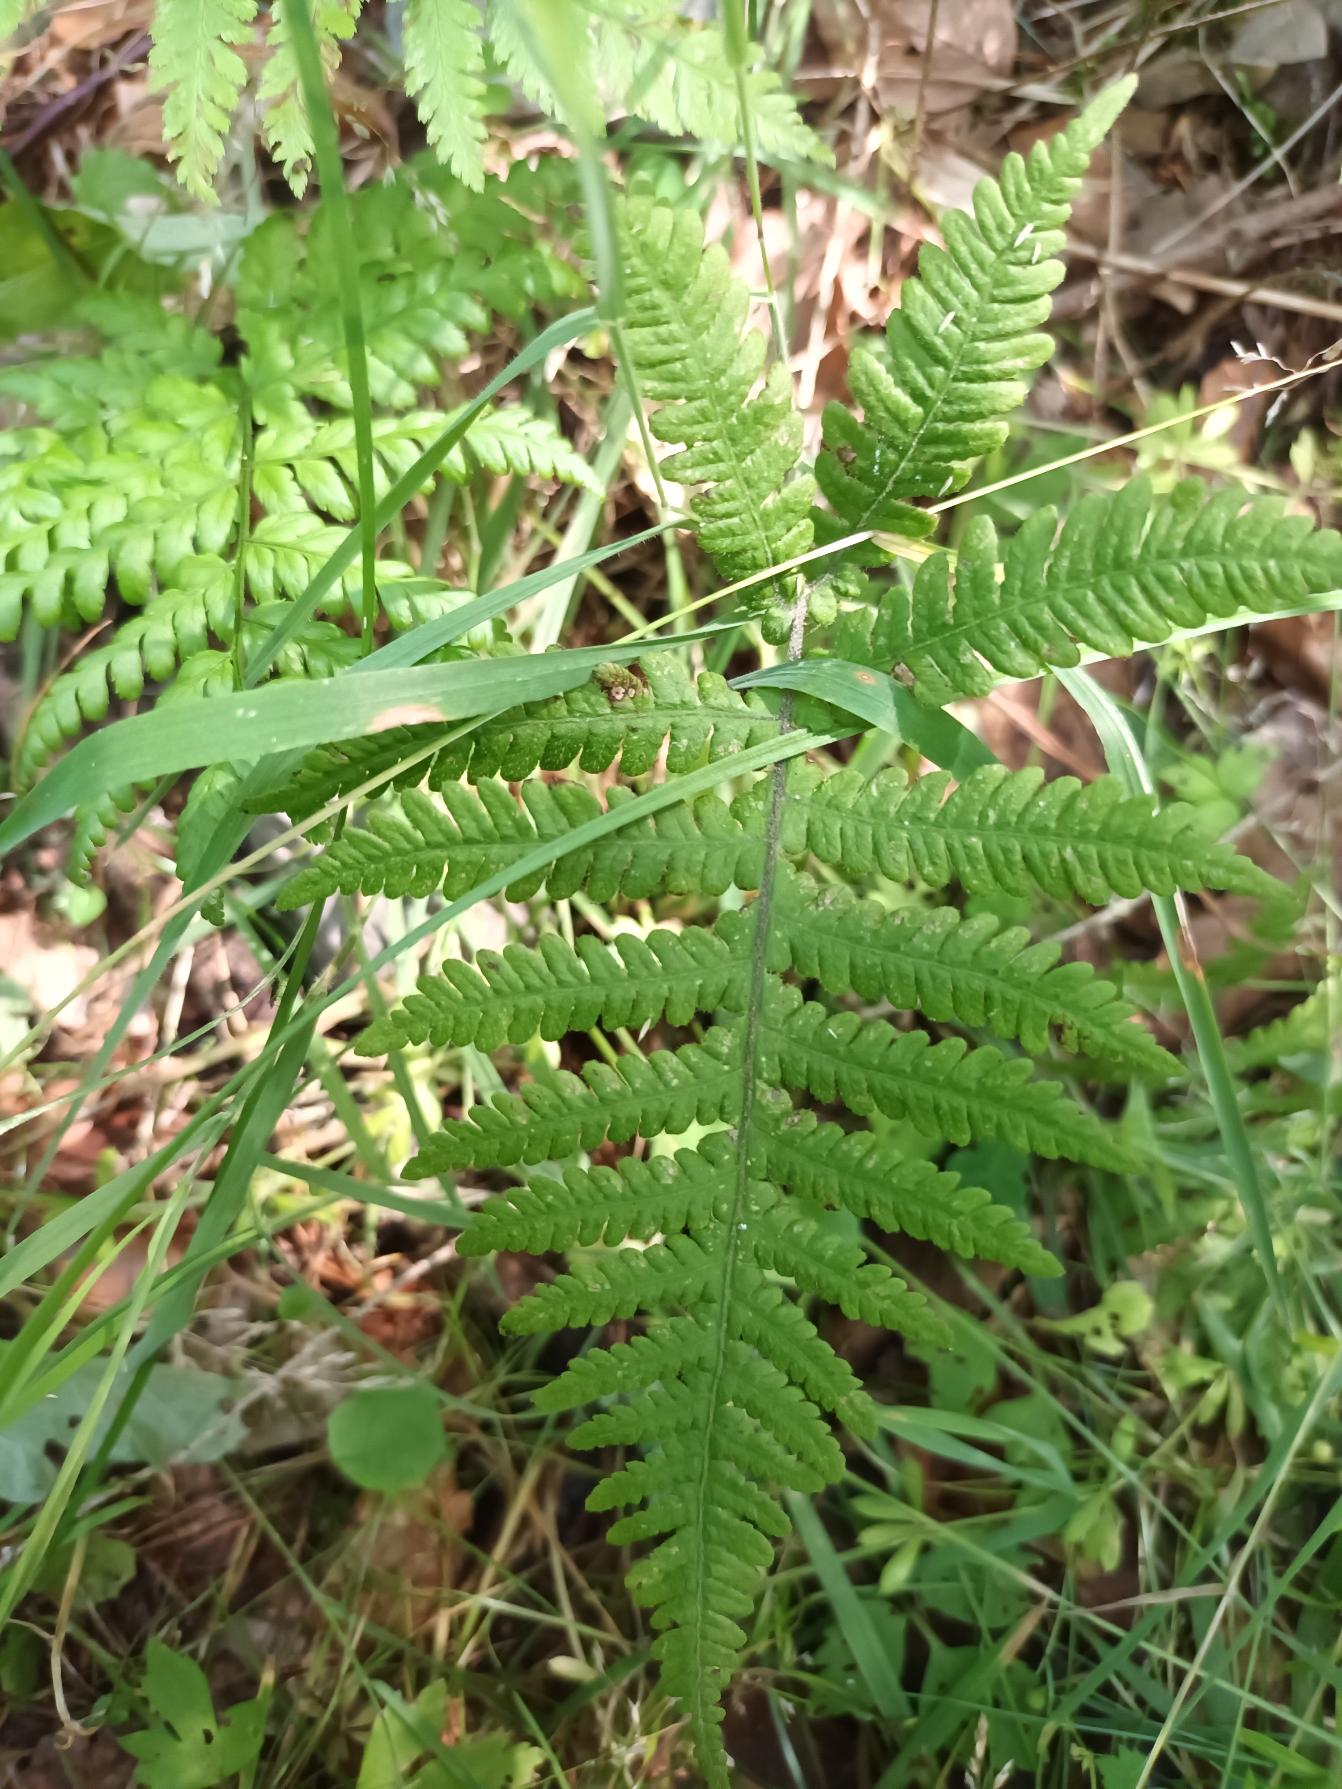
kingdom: Plantae
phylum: Tracheophyta
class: Polypodiopsida
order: Polypodiales
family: Thelypteridaceae
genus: Phegopteris
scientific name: Phegopteris connectilis
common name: Dunet egebregne
